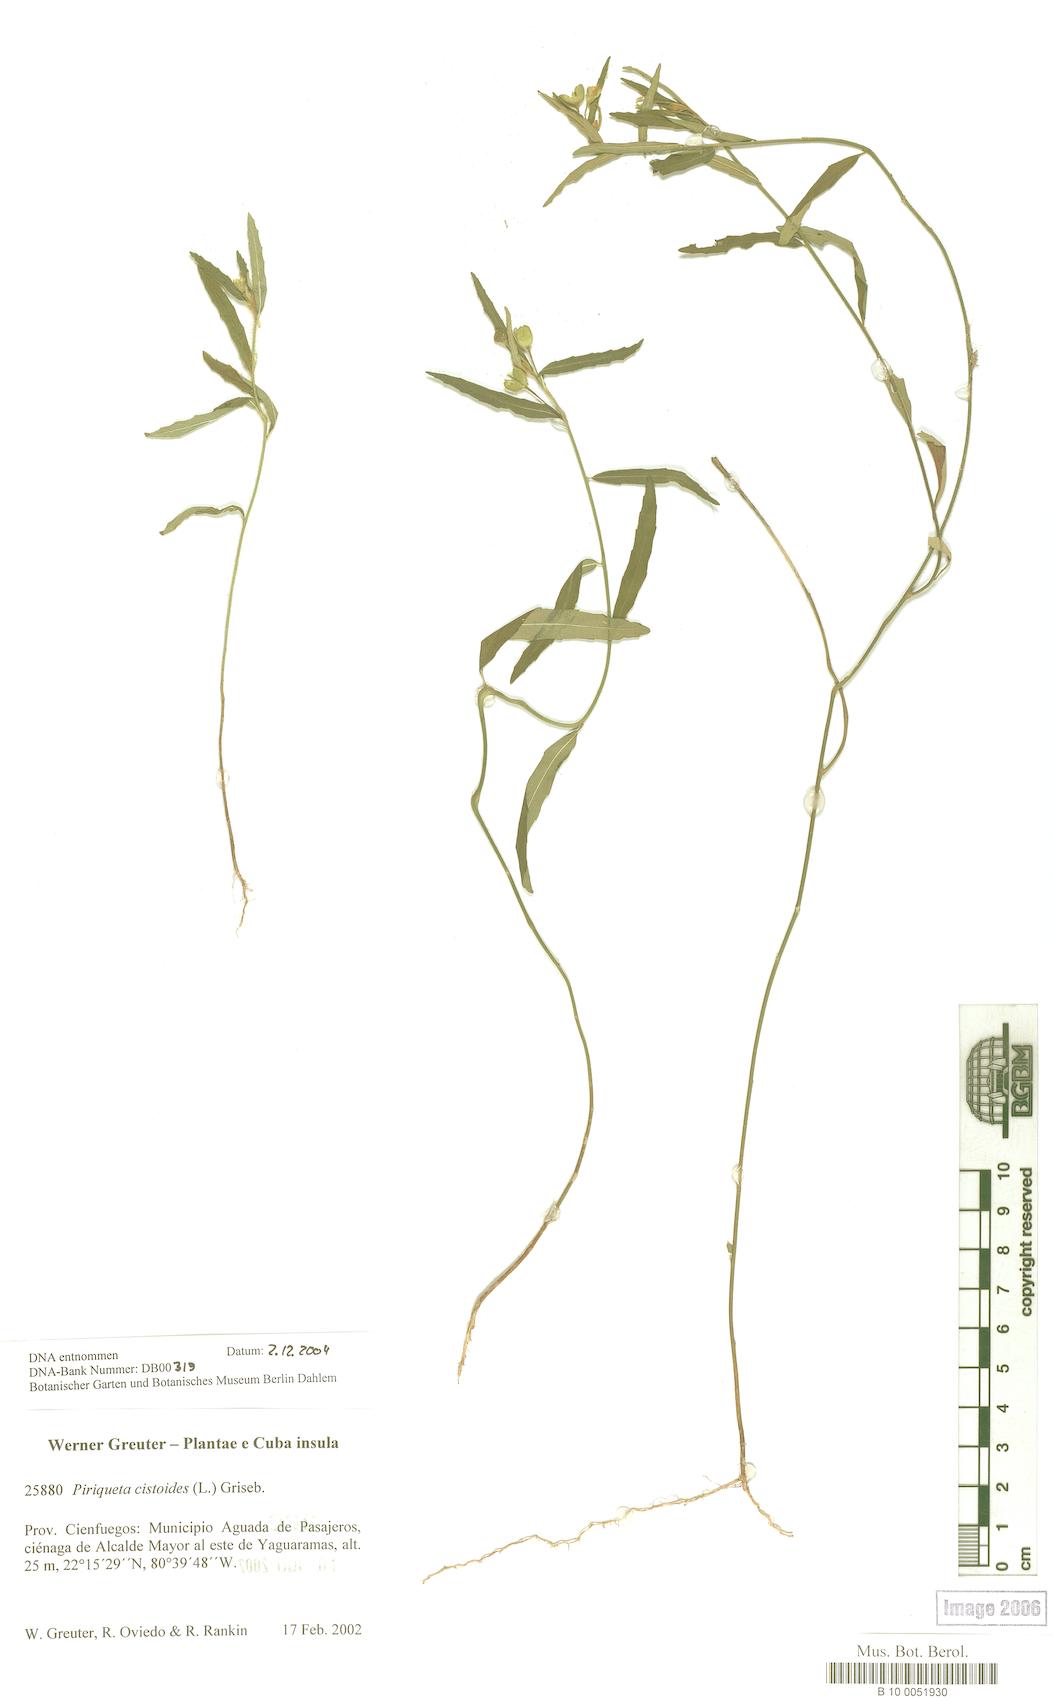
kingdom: Plantae
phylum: Tracheophyta
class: Magnoliopsida
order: Malpighiales
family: Turneraceae
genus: Piriqueta
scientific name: Piriqueta cistoides
